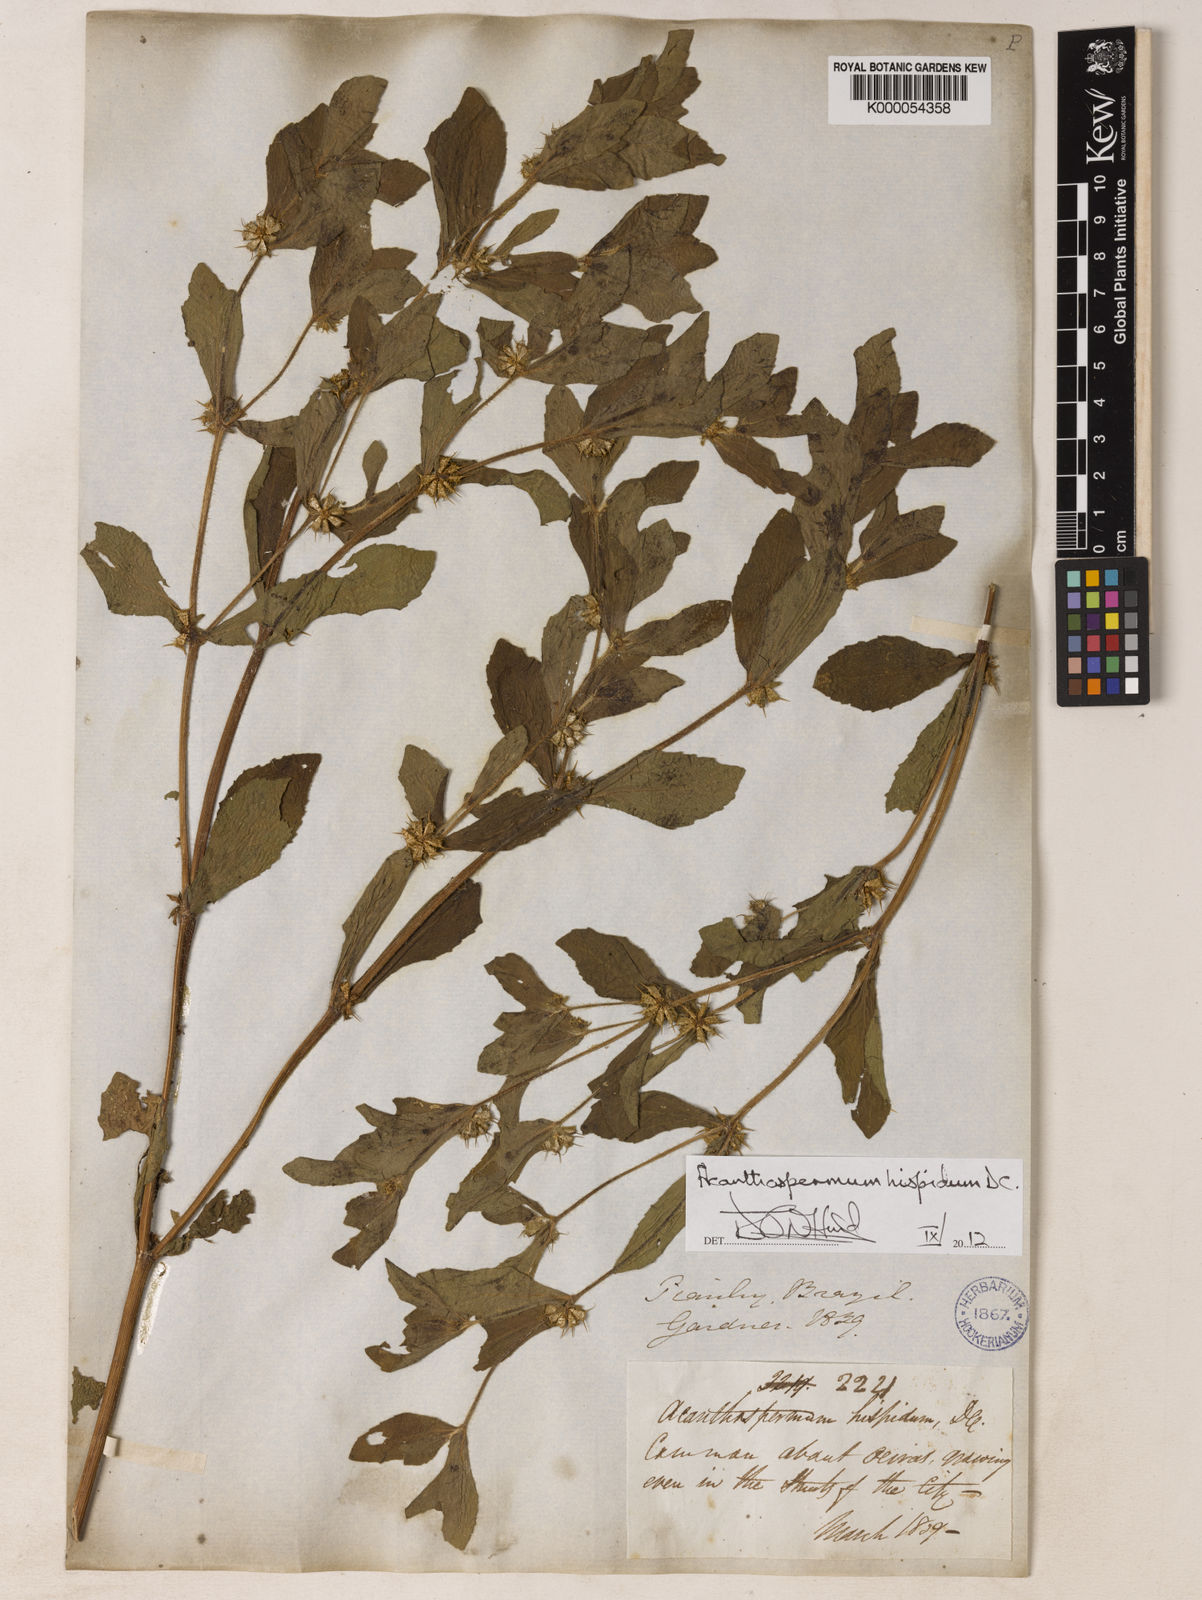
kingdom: Plantae
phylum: Tracheophyta
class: Magnoliopsida
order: Asterales
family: Asteraceae
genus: Acanthospermum
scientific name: Acanthospermum hispidum
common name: Hispid starbur
